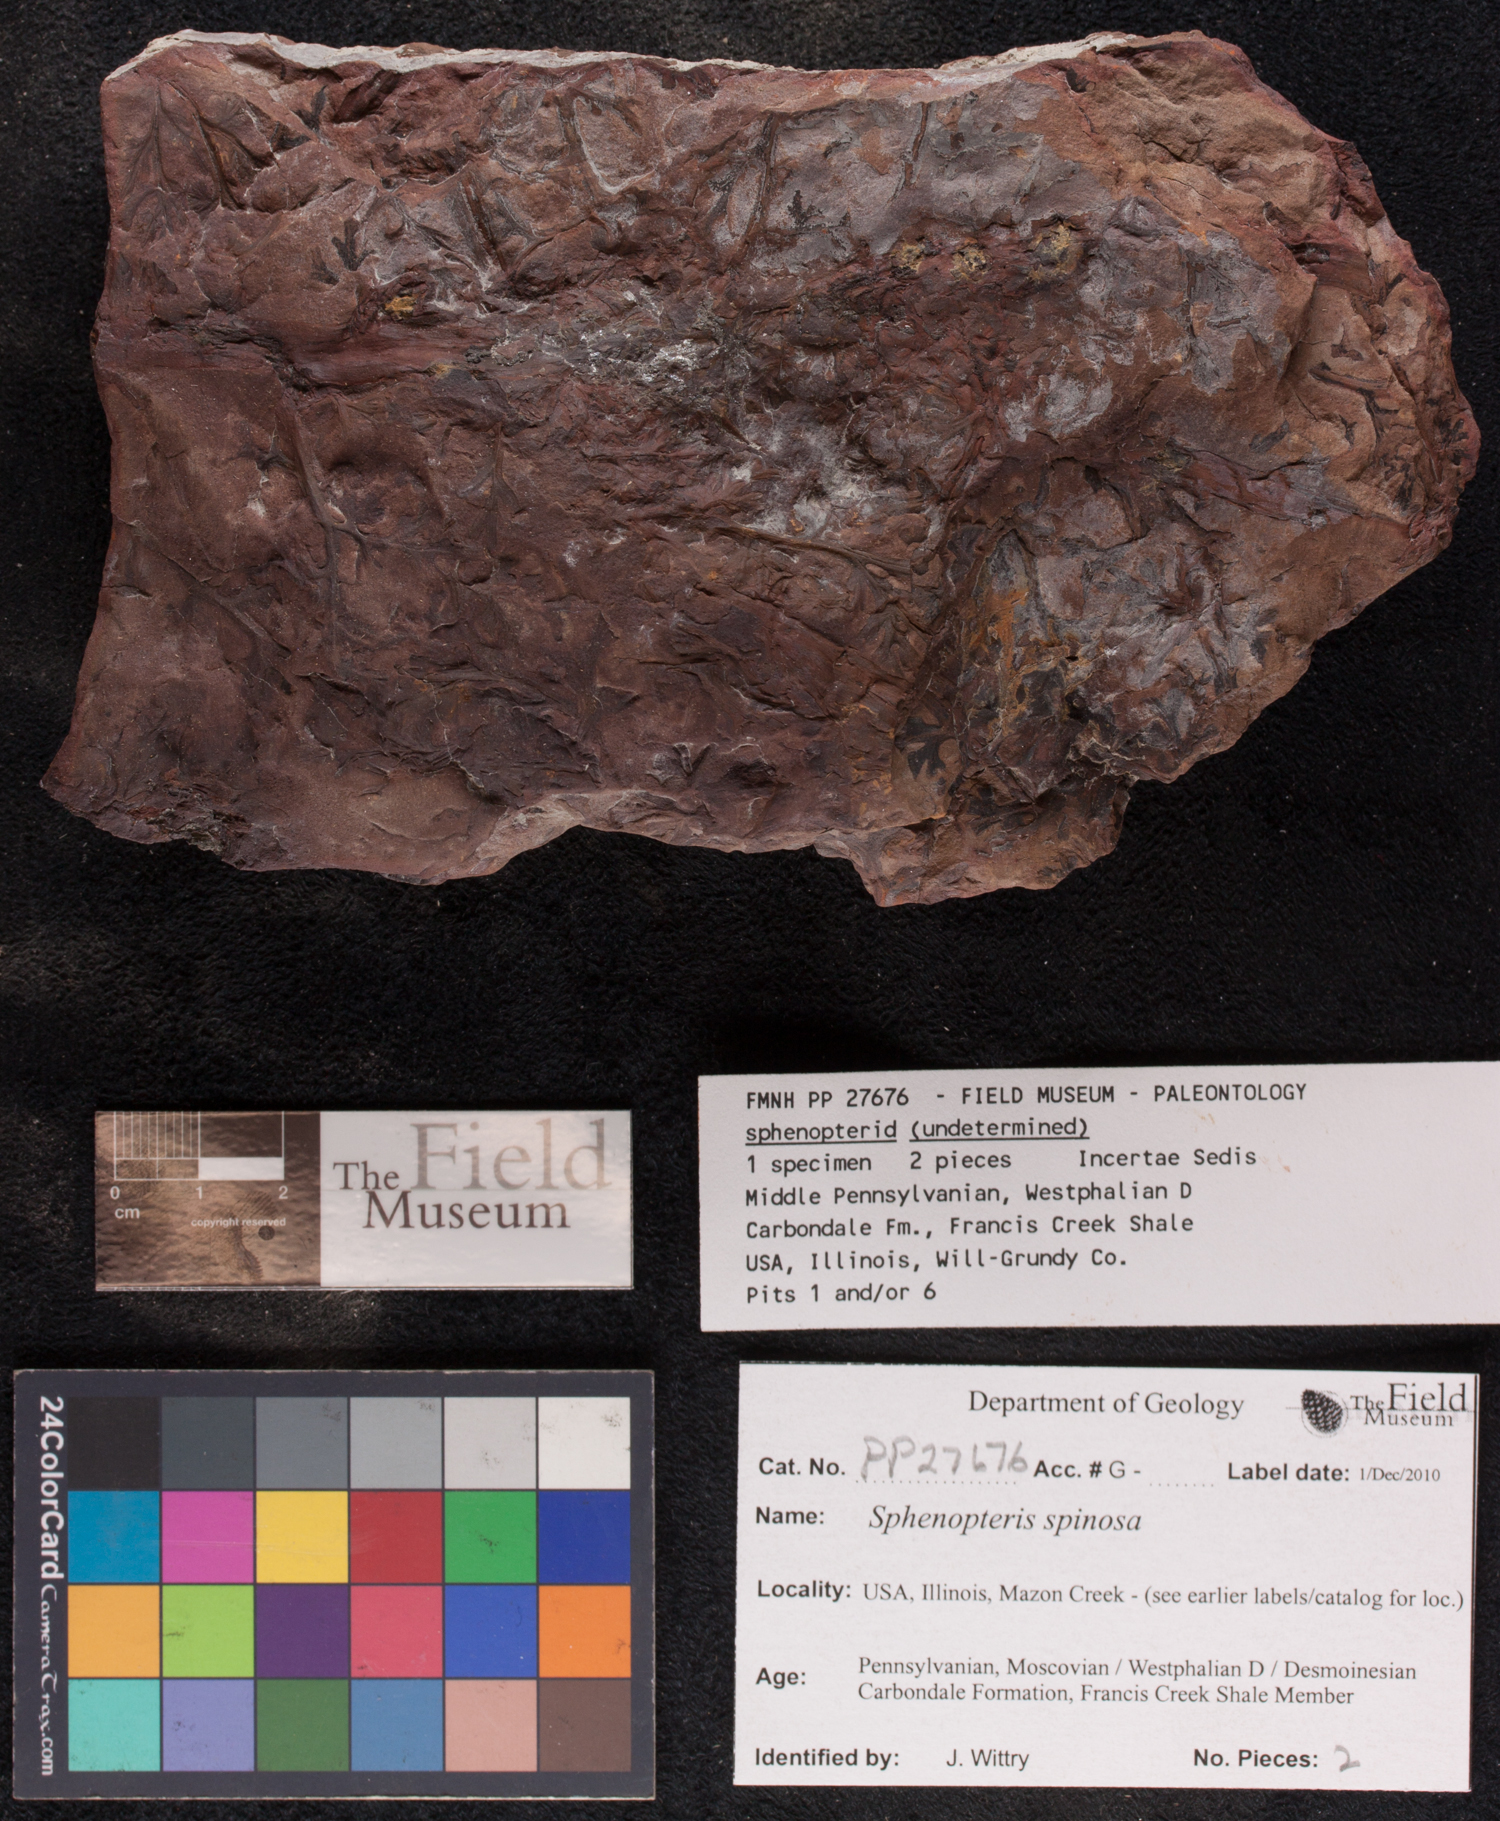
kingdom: Plantae
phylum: Tracheophyta
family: Lyginopteridaceae
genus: Sphenopteris
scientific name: Sphenopteris
